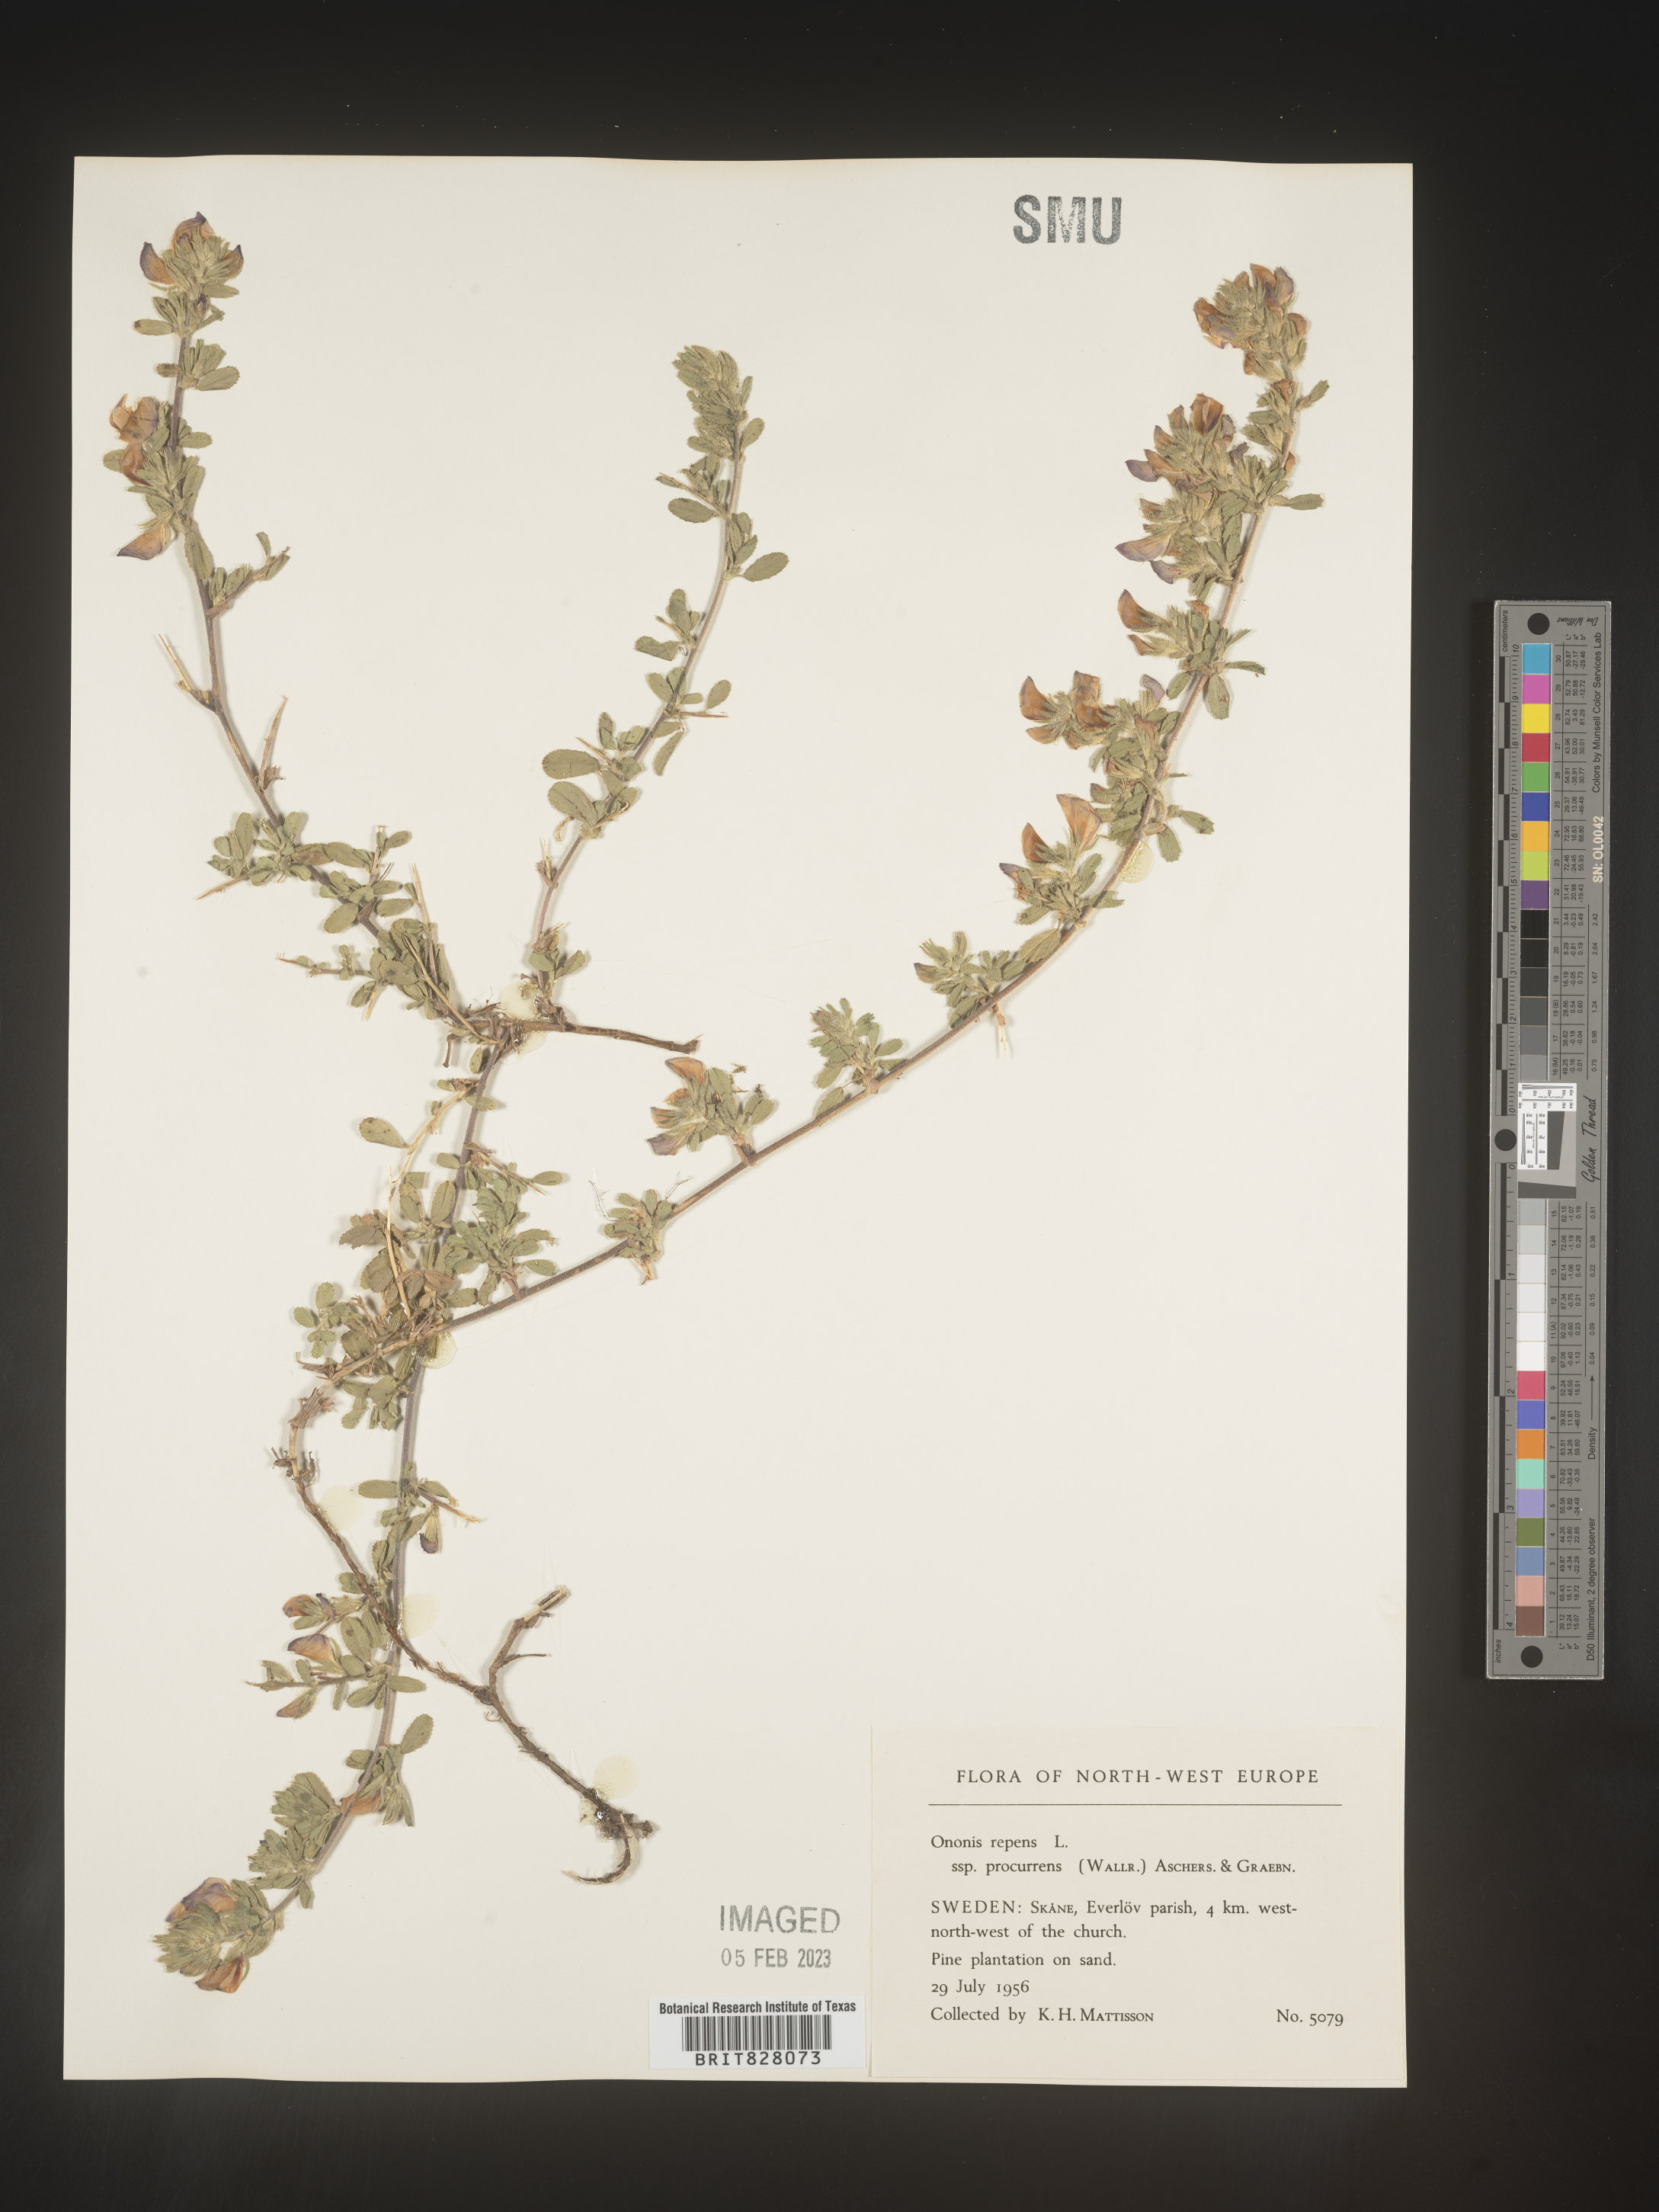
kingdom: Plantae
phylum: Tracheophyta
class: Magnoliopsida
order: Fabales
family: Fabaceae
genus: Ononis
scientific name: Ononis
